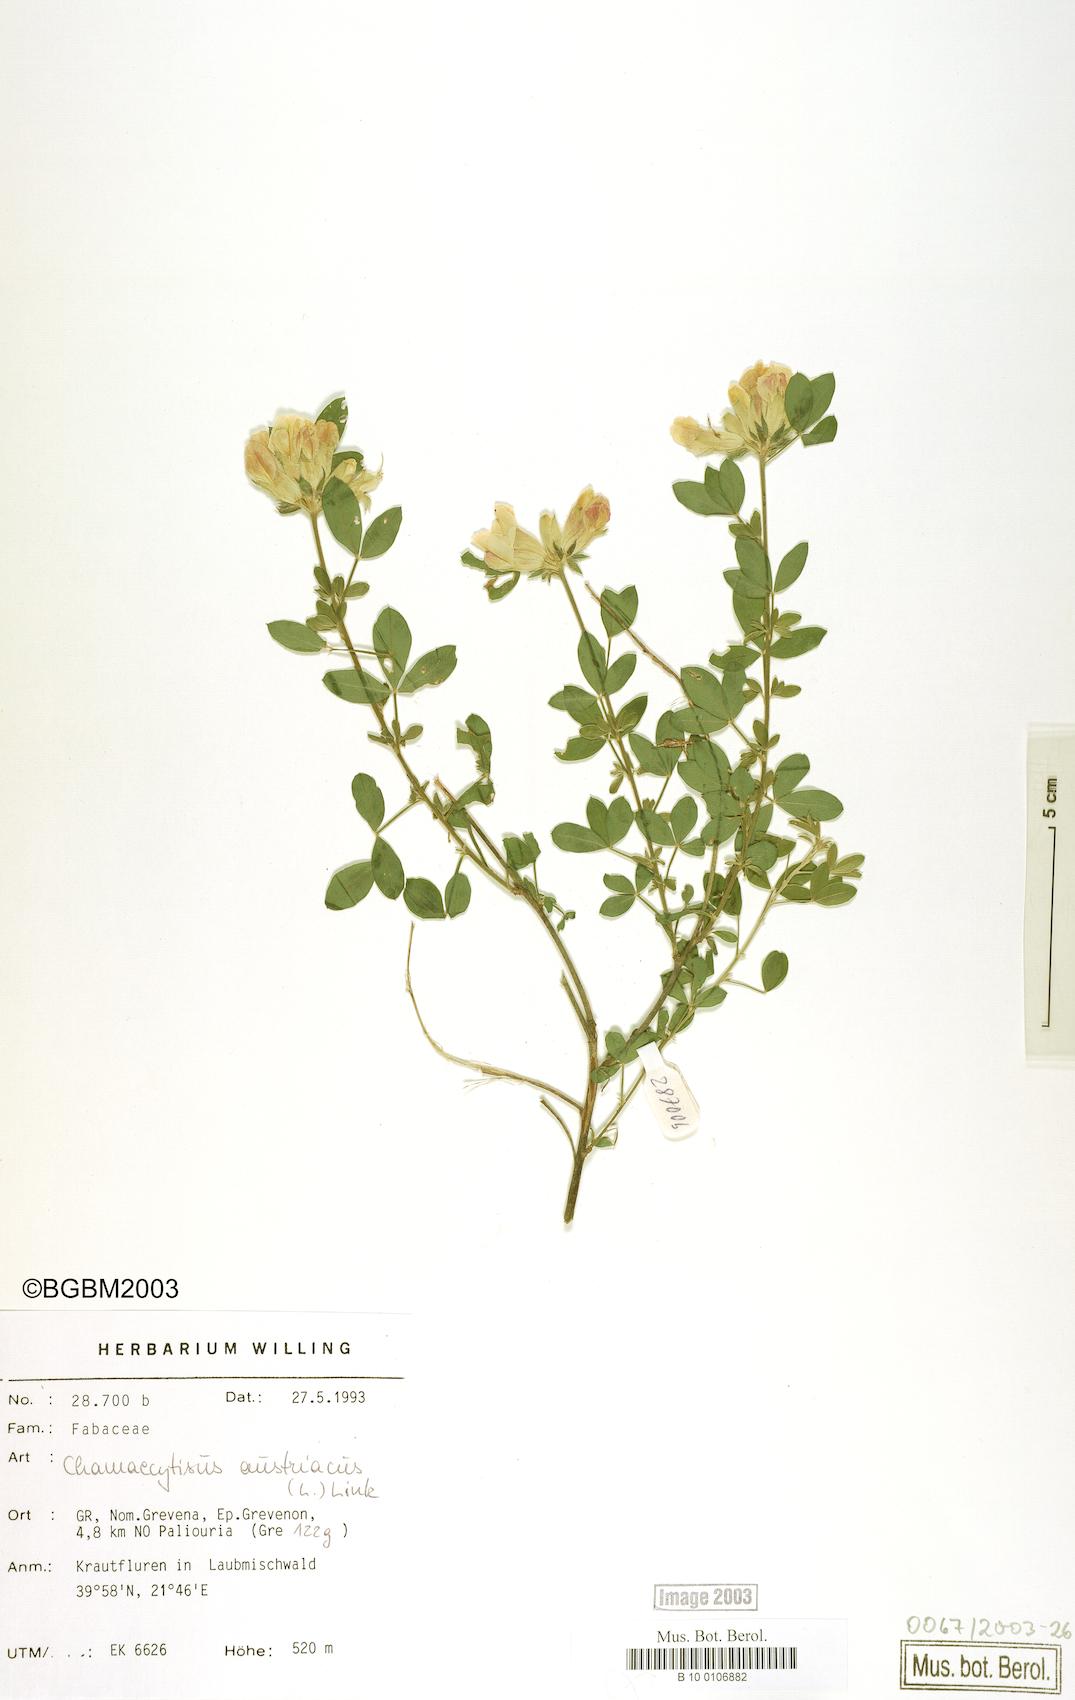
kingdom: Plantae
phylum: Tracheophyta
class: Magnoliopsida
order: Fabales
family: Fabaceae
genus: Chamaecytisus
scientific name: Chamaecytisus austriacus
